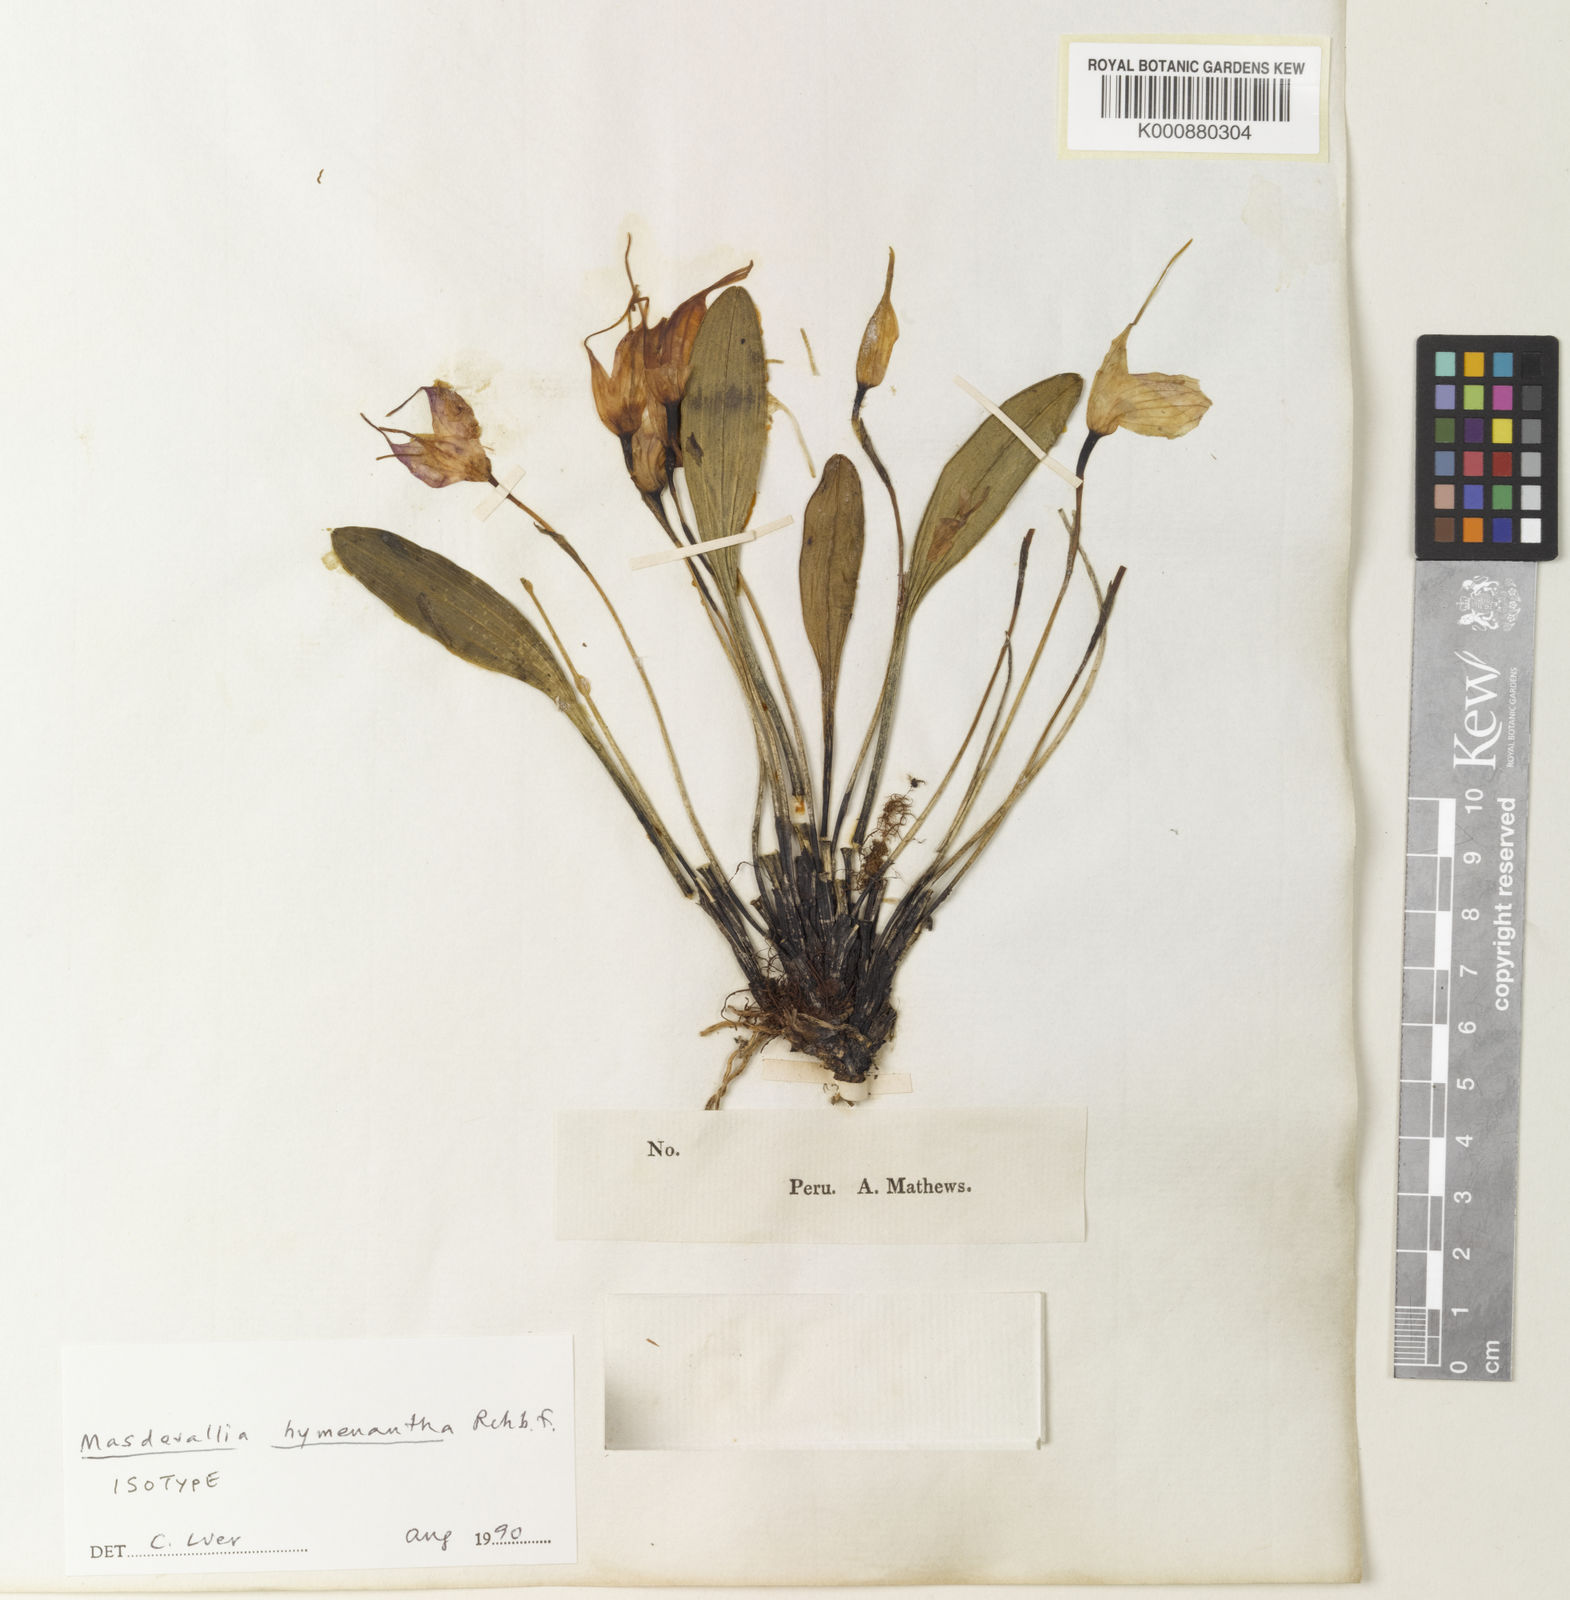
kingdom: Plantae
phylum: Tracheophyta
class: Liliopsida
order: Asparagales
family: Orchidaceae
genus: Masdevallia
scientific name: Masdevallia hymenantha
